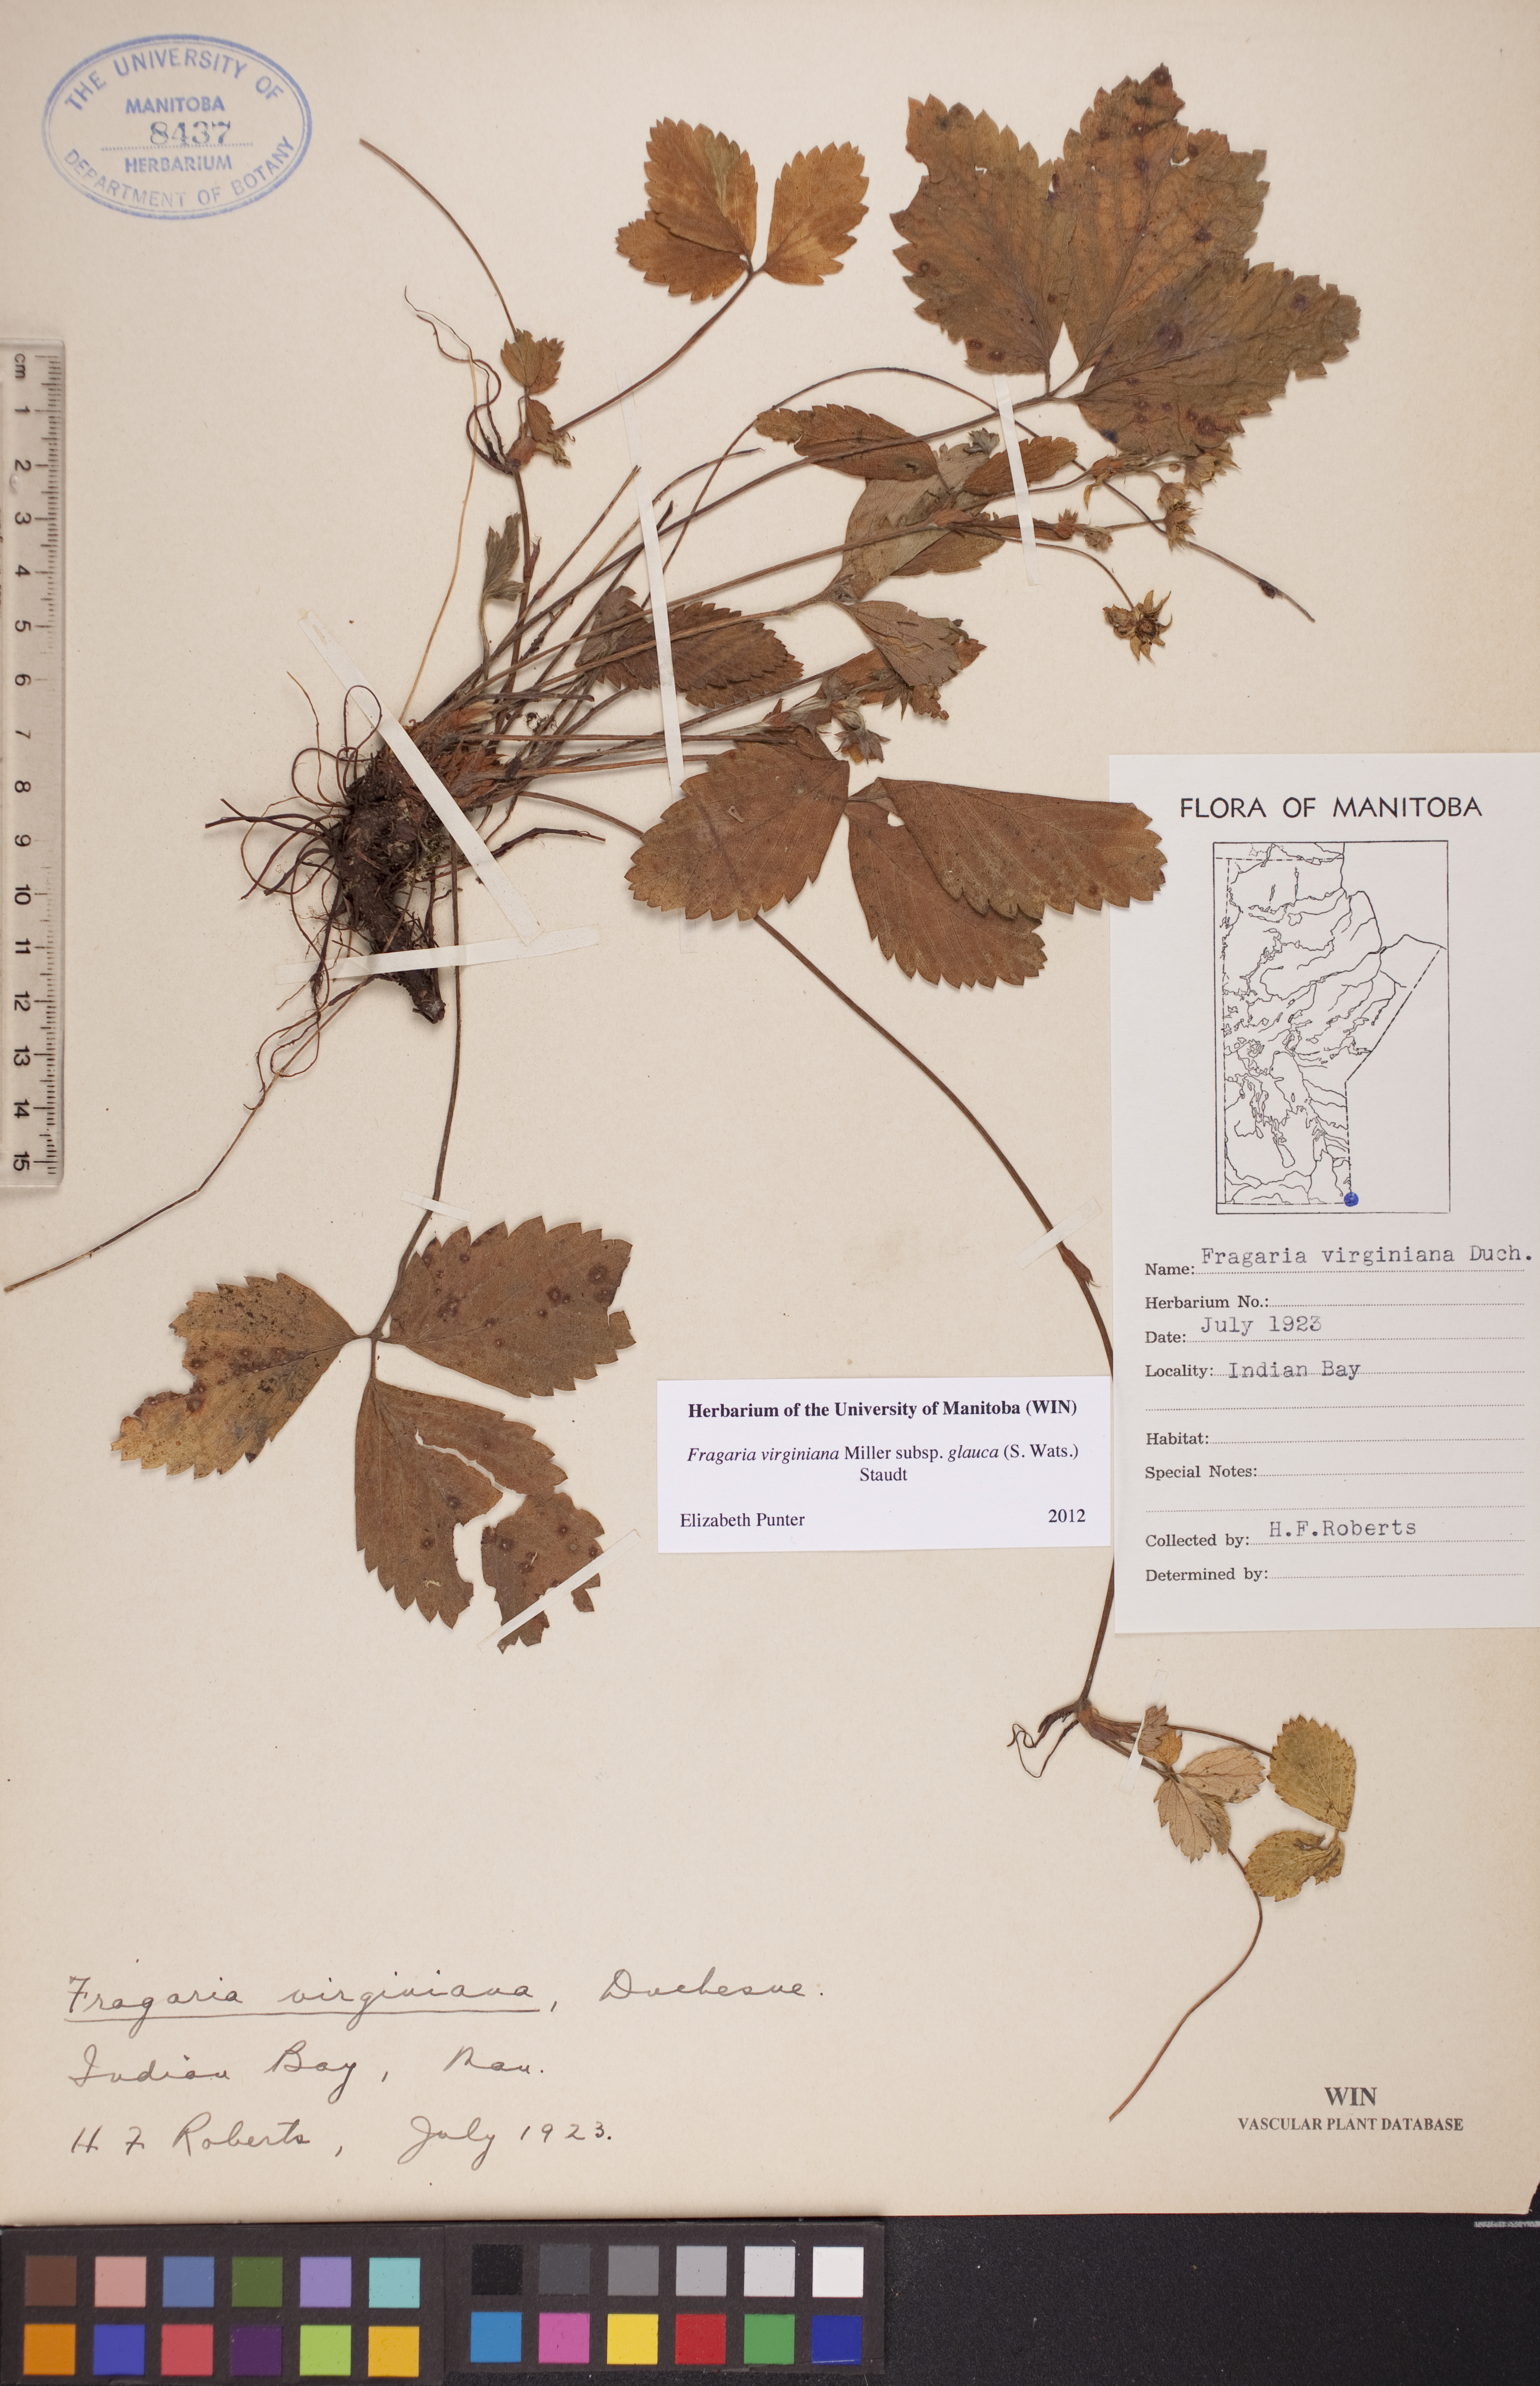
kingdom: Plantae
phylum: Tracheophyta
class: Magnoliopsida
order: Rosales
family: Rosaceae
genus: Fragaria
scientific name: Fragaria virginiana
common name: Thickleaved wild strawberry
